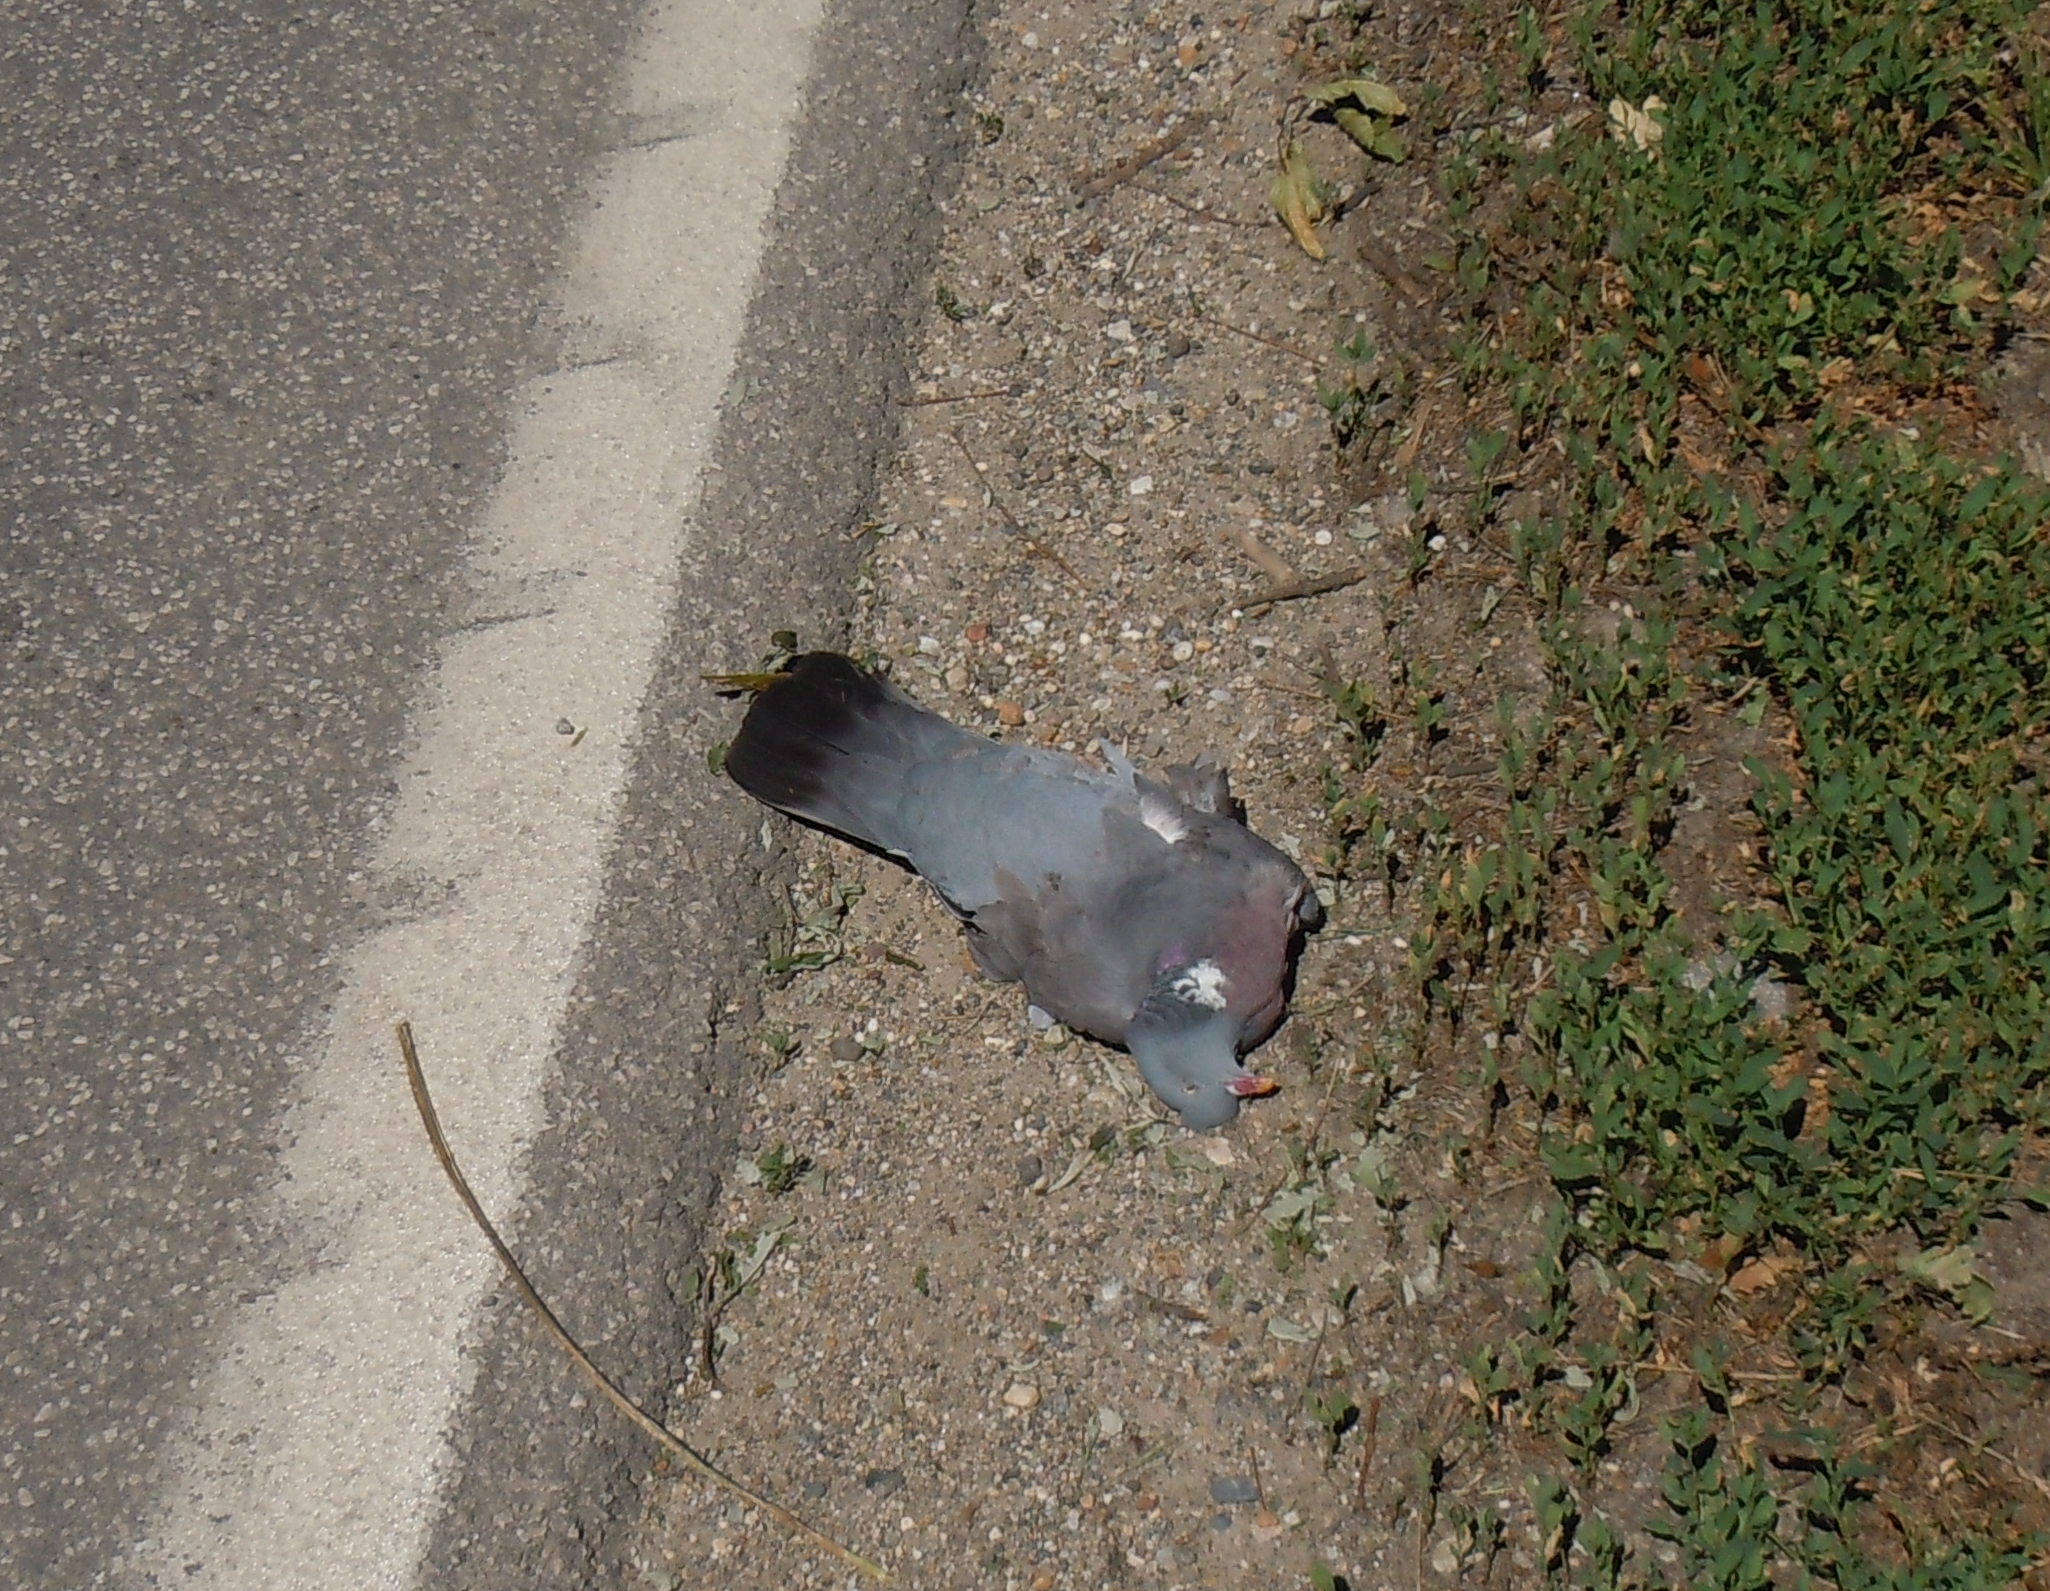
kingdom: Animalia
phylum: Chordata
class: Aves
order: Columbiformes
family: Columbidae
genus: Columba
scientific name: Columba palumbus
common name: Common wood pigeon
